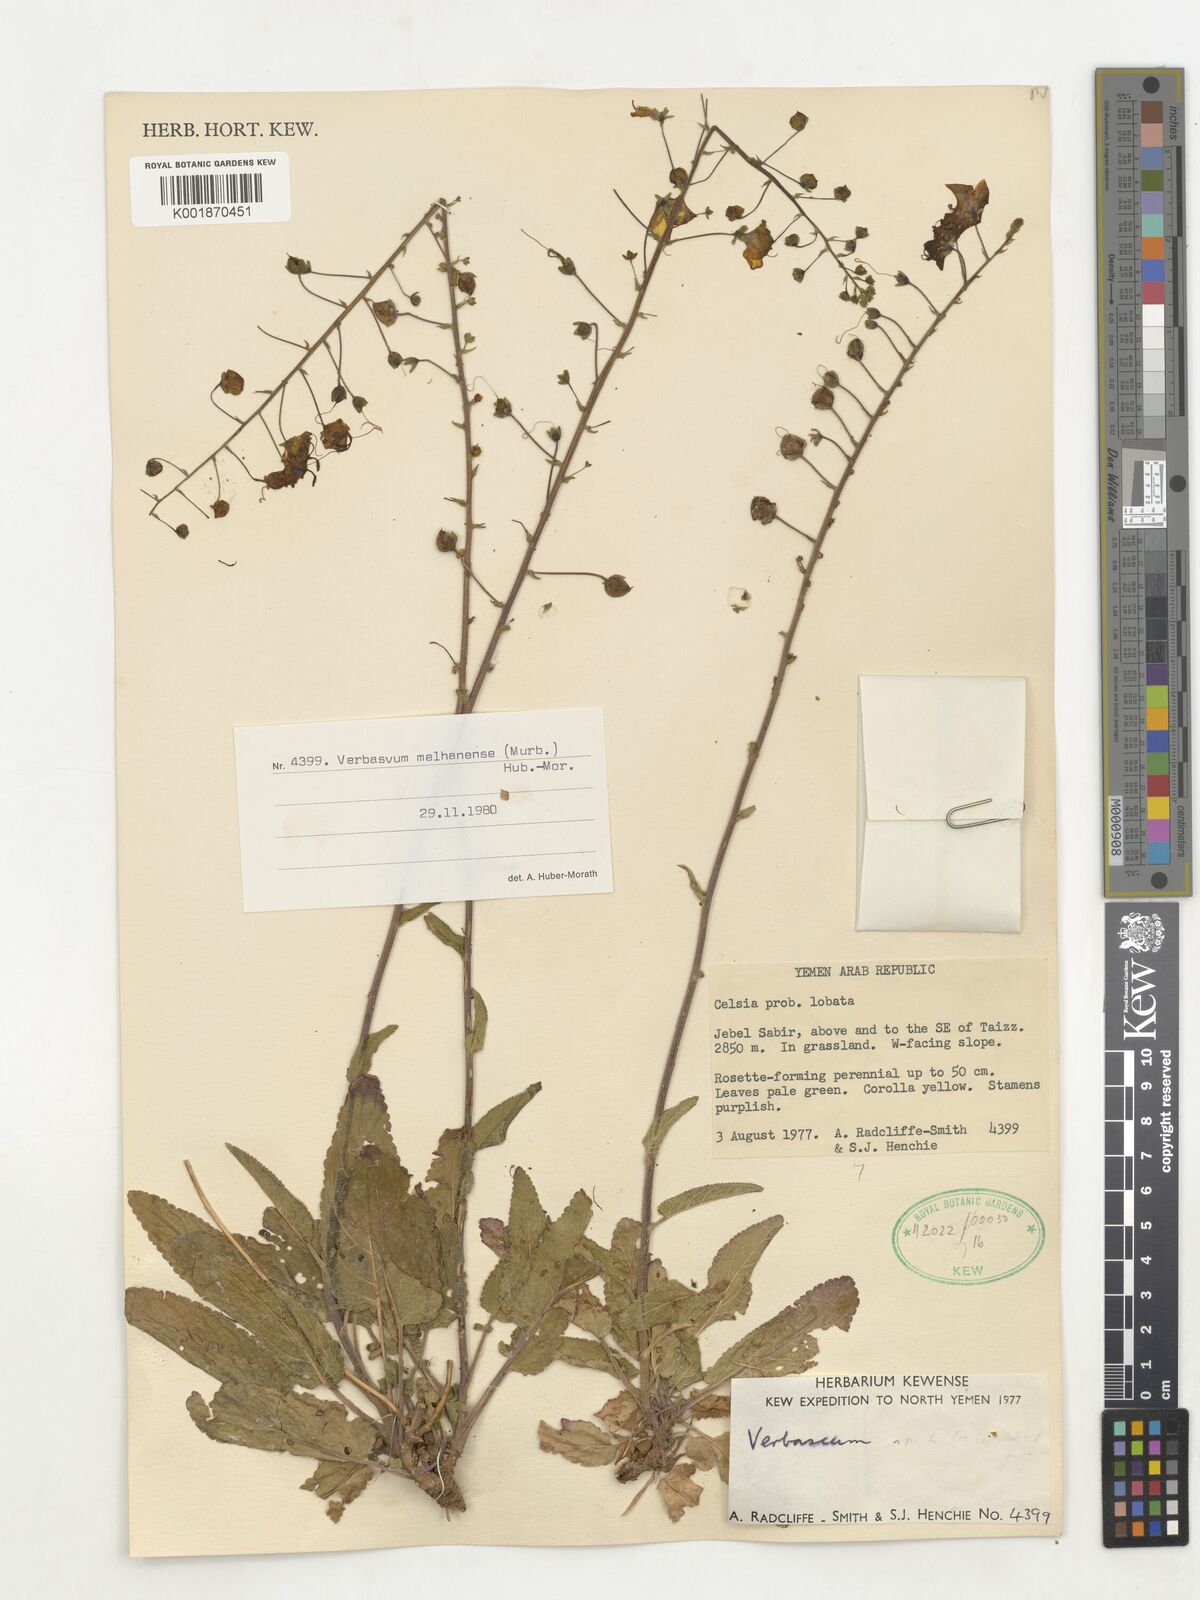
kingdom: Plantae
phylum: Tracheophyta
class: Magnoliopsida
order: Lamiales
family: Scrophulariaceae
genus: Verbascum
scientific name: Verbascum melhanense
